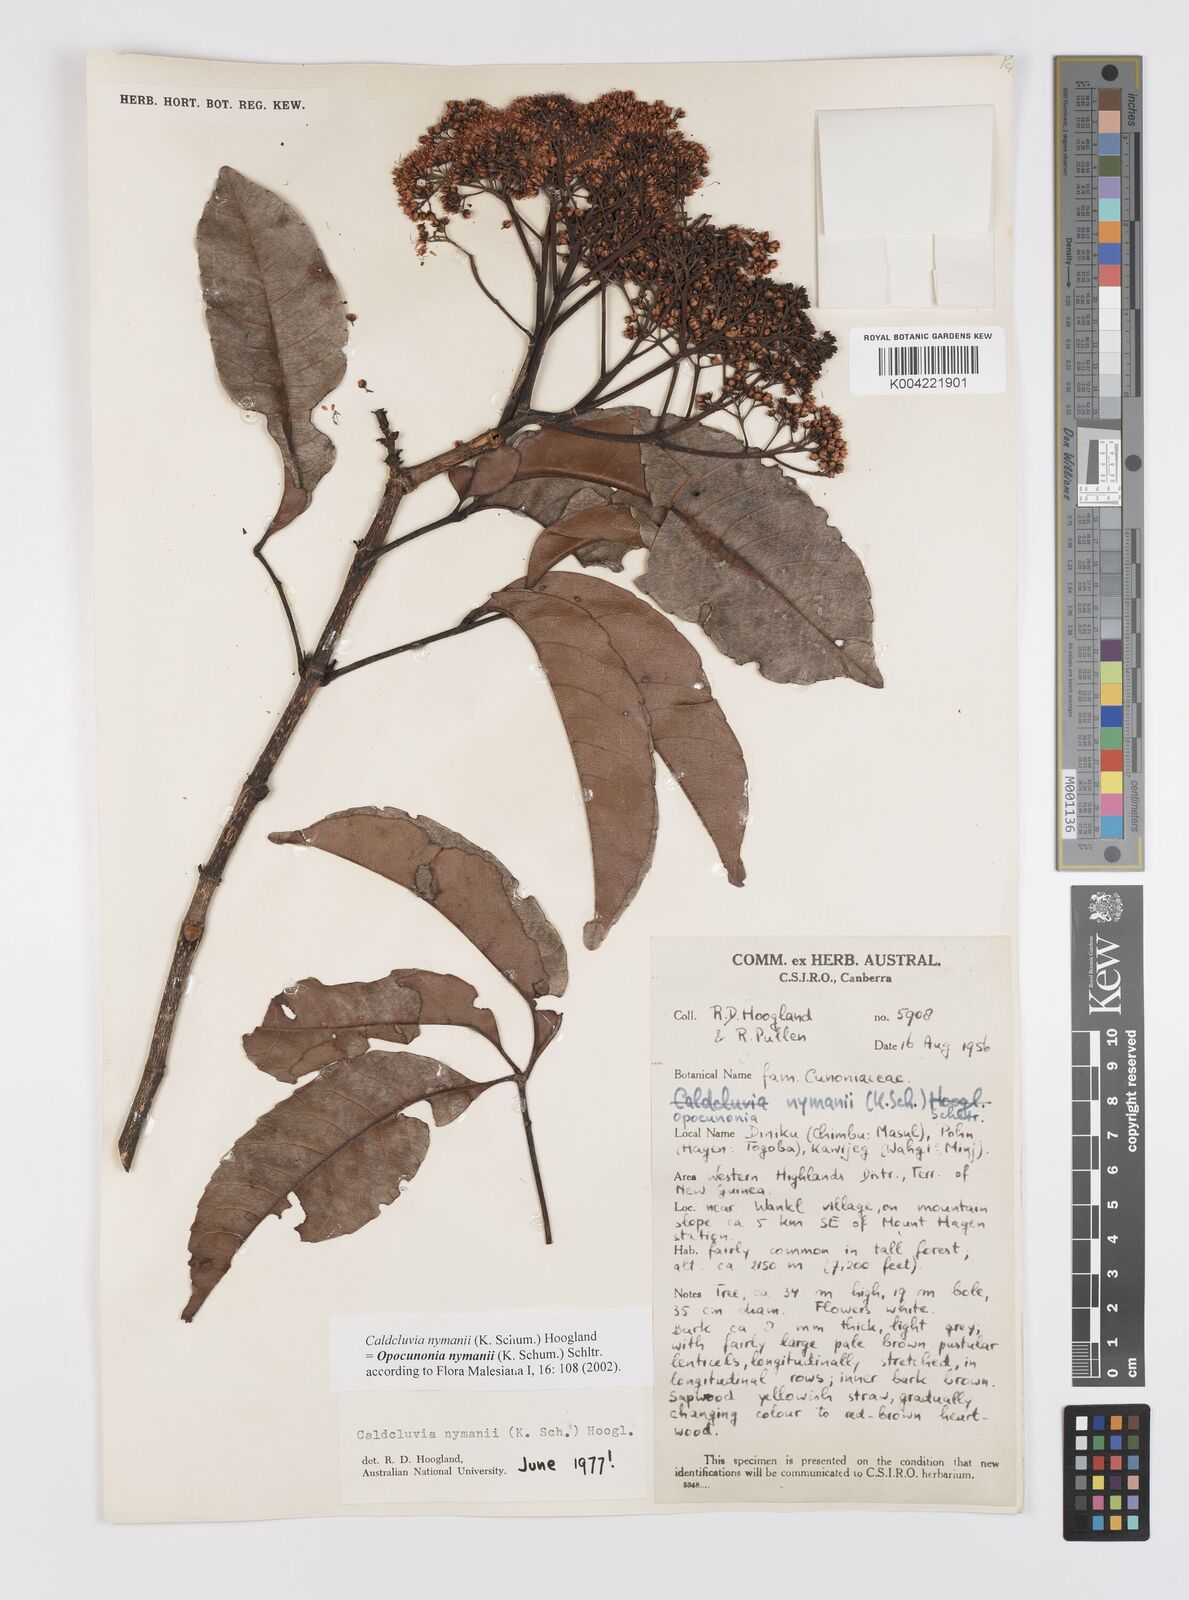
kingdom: Plantae
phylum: Tracheophyta
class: Magnoliopsida
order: Oxalidales
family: Cunoniaceae
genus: Opocunonia
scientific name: Opocunonia nymanii
